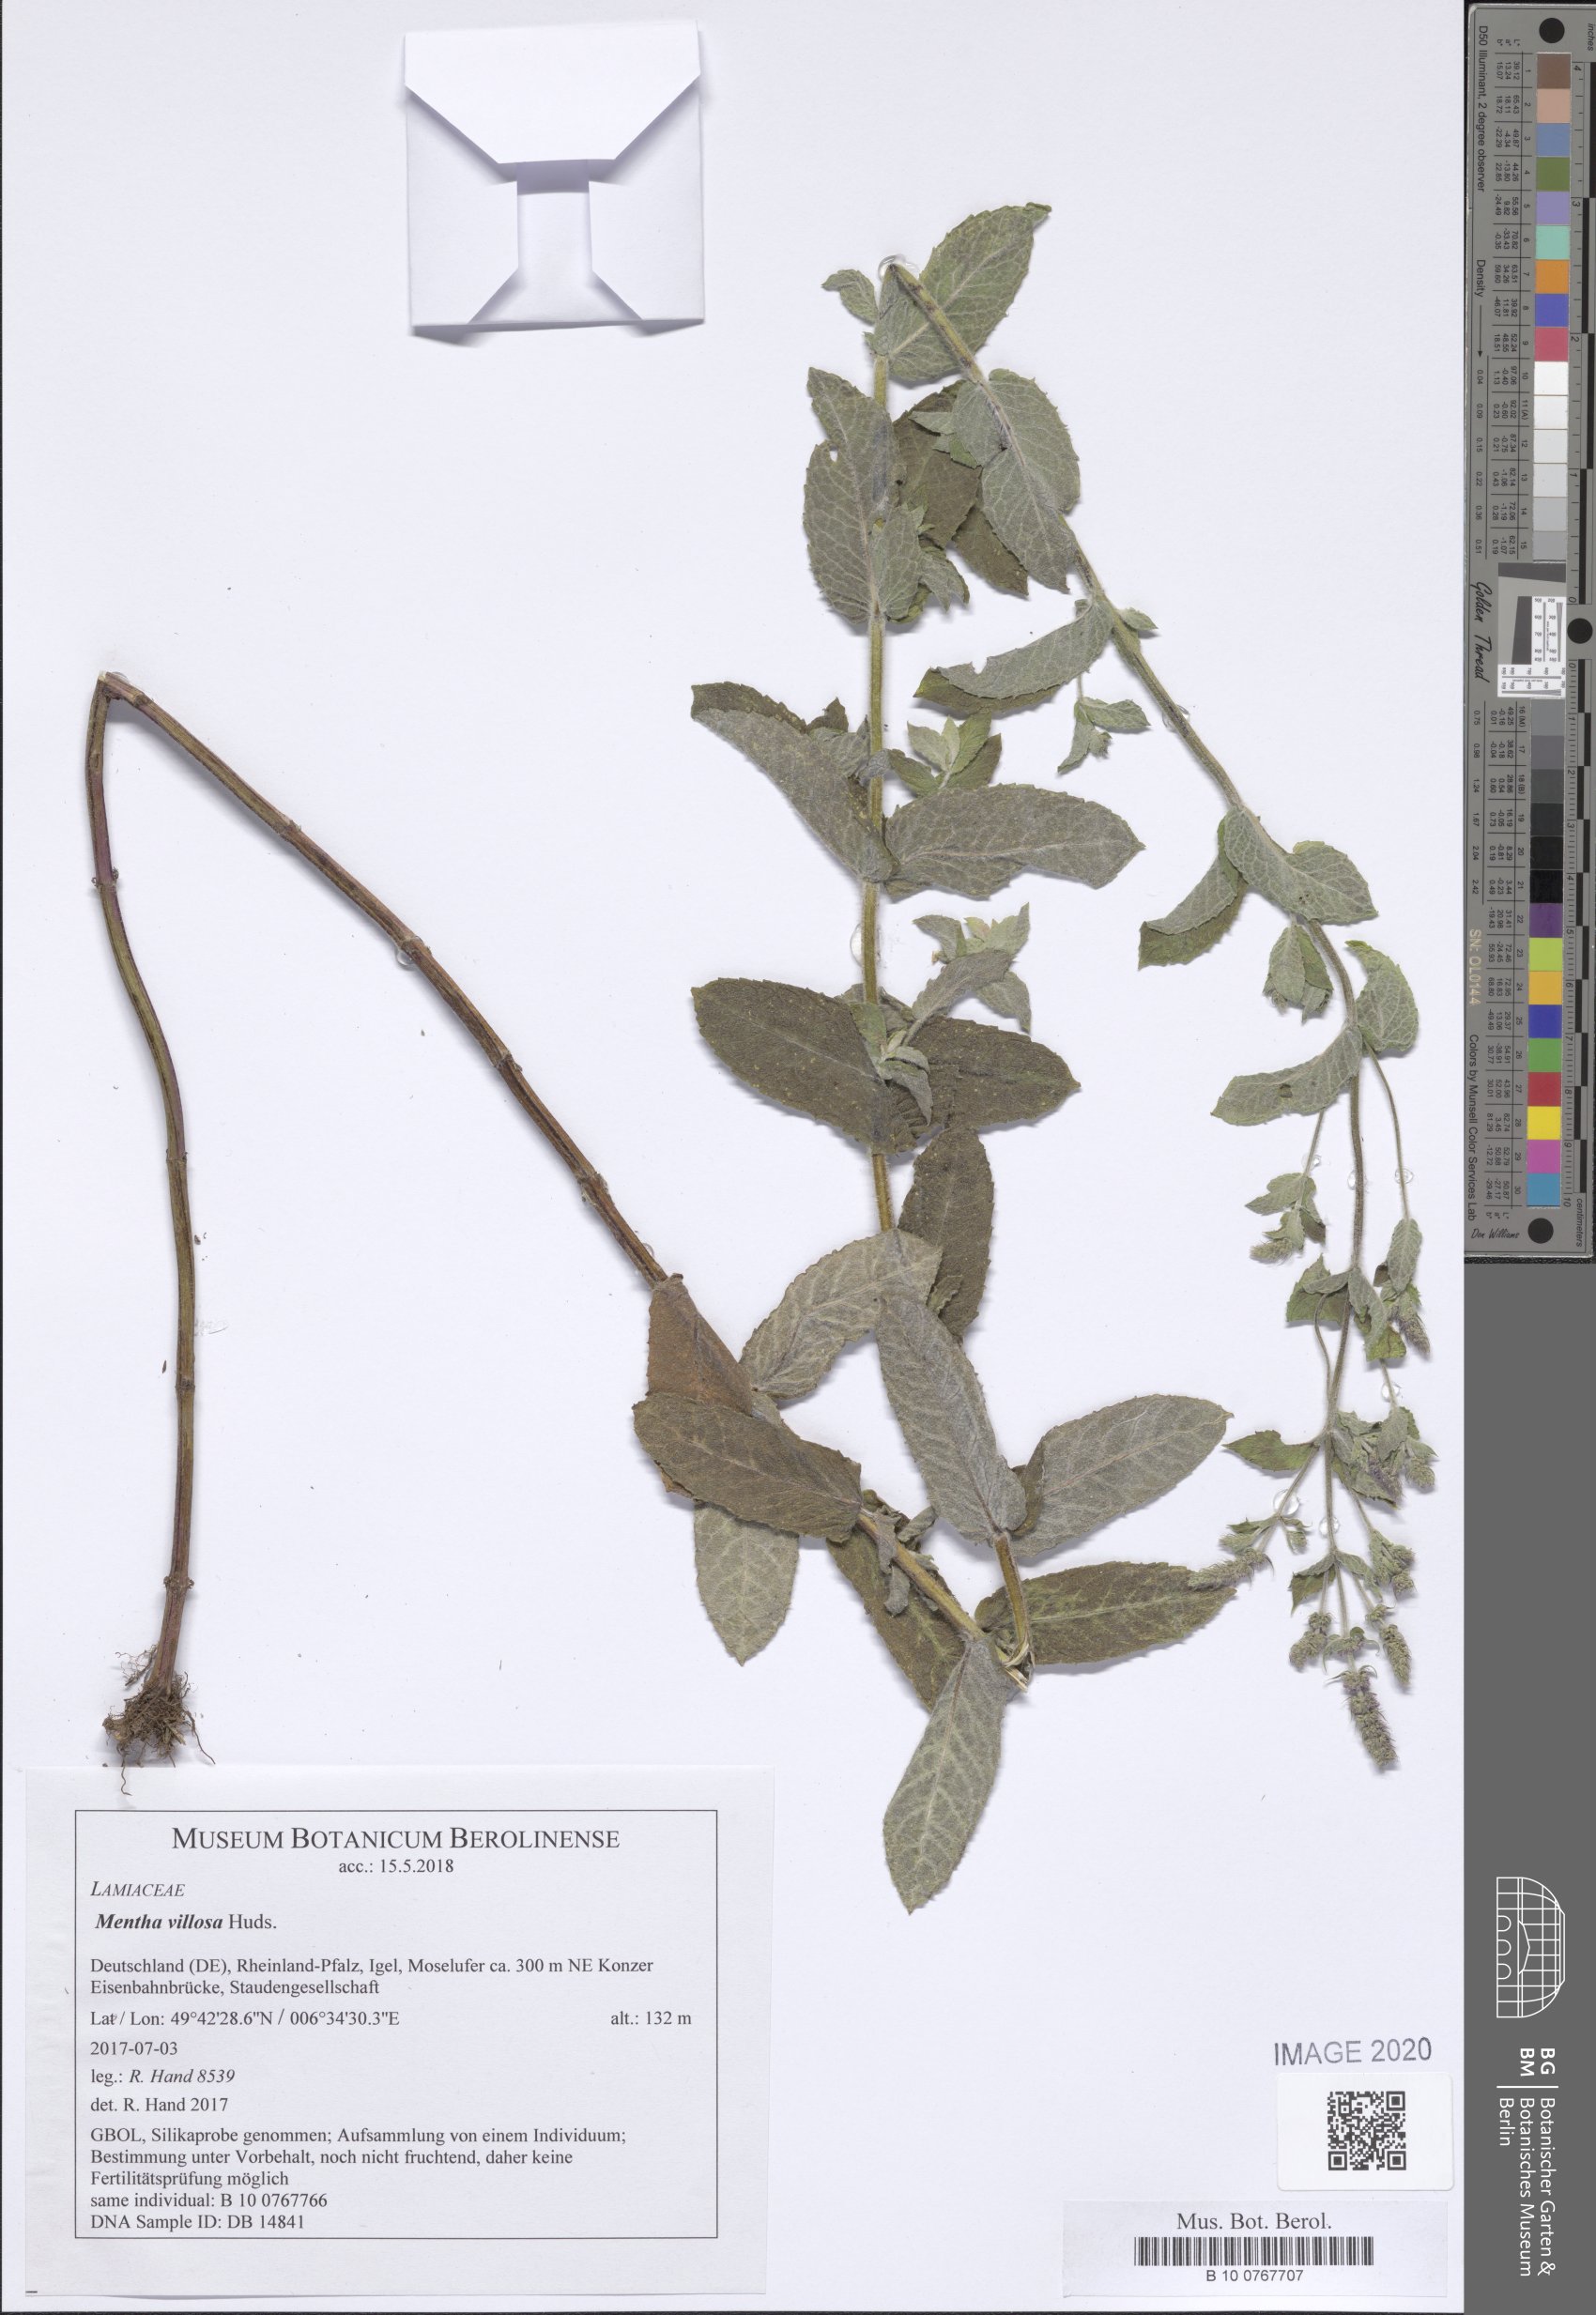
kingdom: Plantae
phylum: Tracheophyta
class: Magnoliopsida
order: Lamiales
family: Lamiaceae
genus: Mentha
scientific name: Mentha villosa
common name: Apple mint
